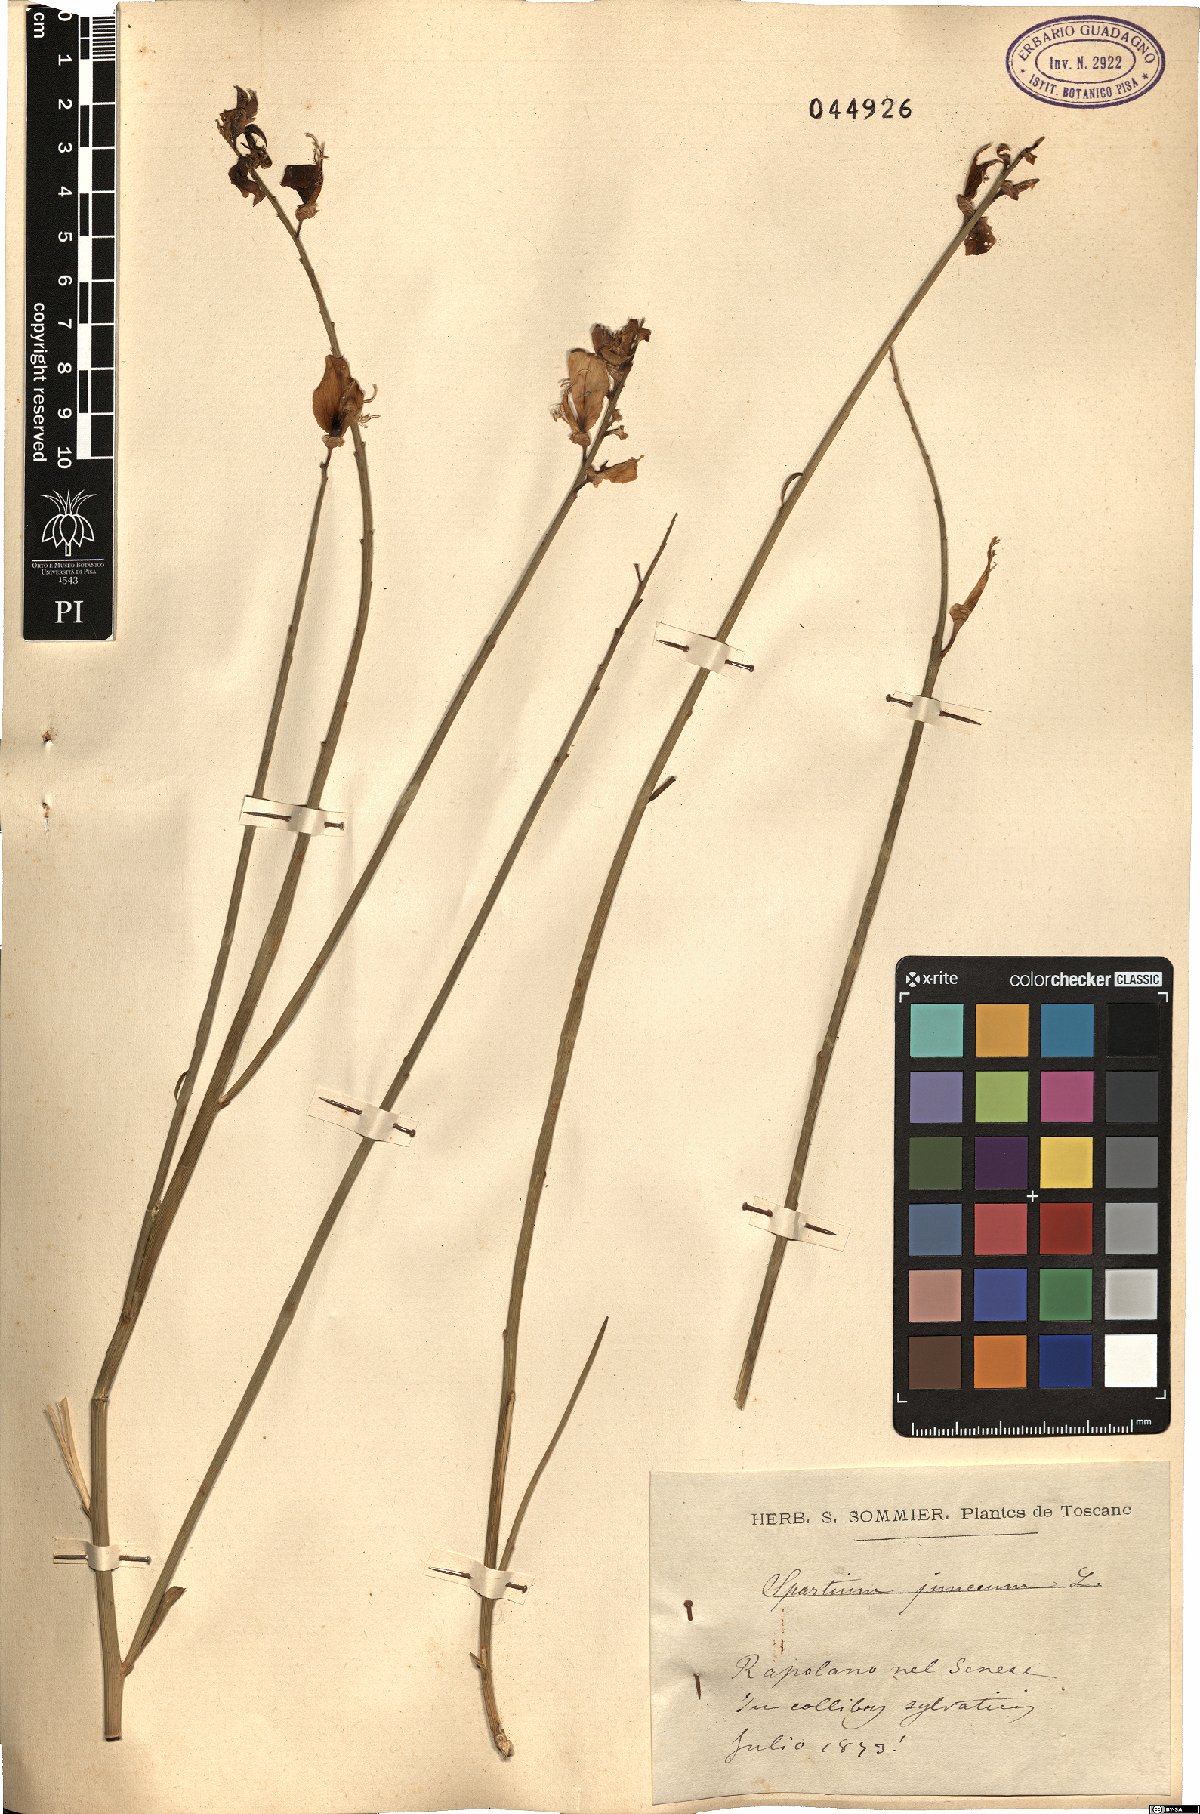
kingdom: Plantae
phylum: Tracheophyta
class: Magnoliopsida
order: Fabales
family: Fabaceae
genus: Spartium
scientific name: Spartium junceum
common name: Spanish broom
